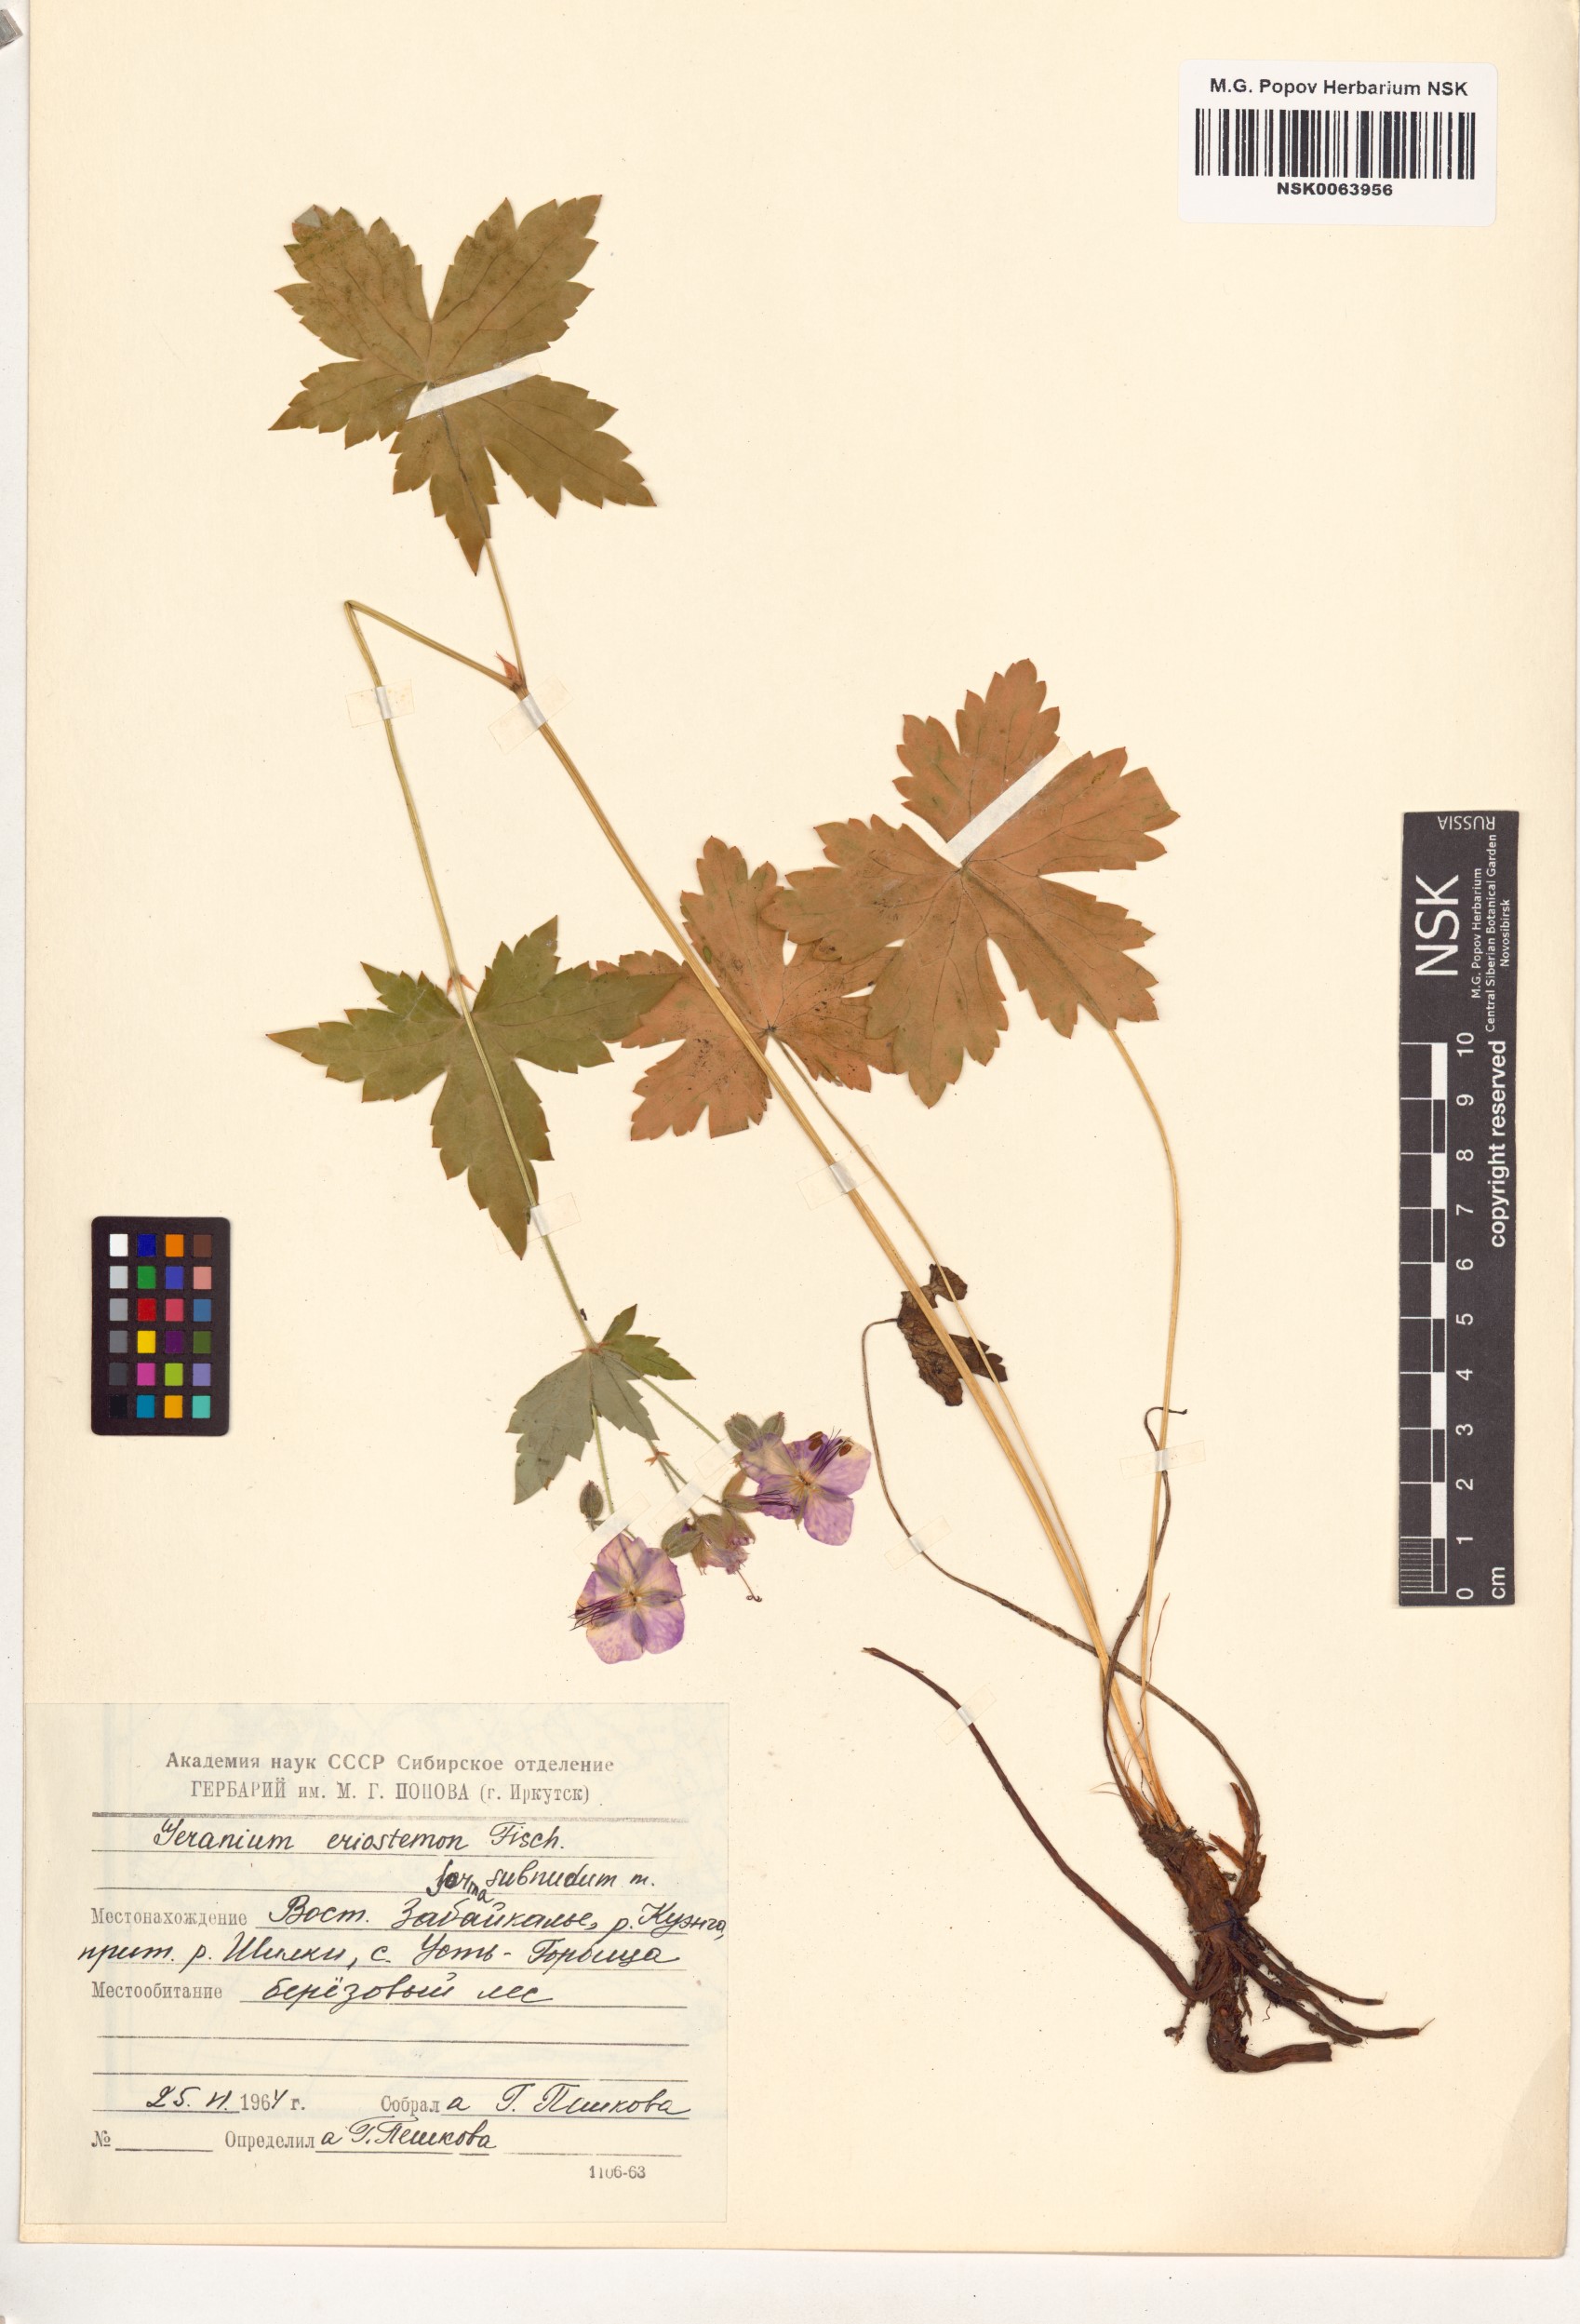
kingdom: Plantae
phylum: Tracheophyta
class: Magnoliopsida
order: Geraniales
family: Geraniaceae
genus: Geranium
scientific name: Geranium platyanthum
